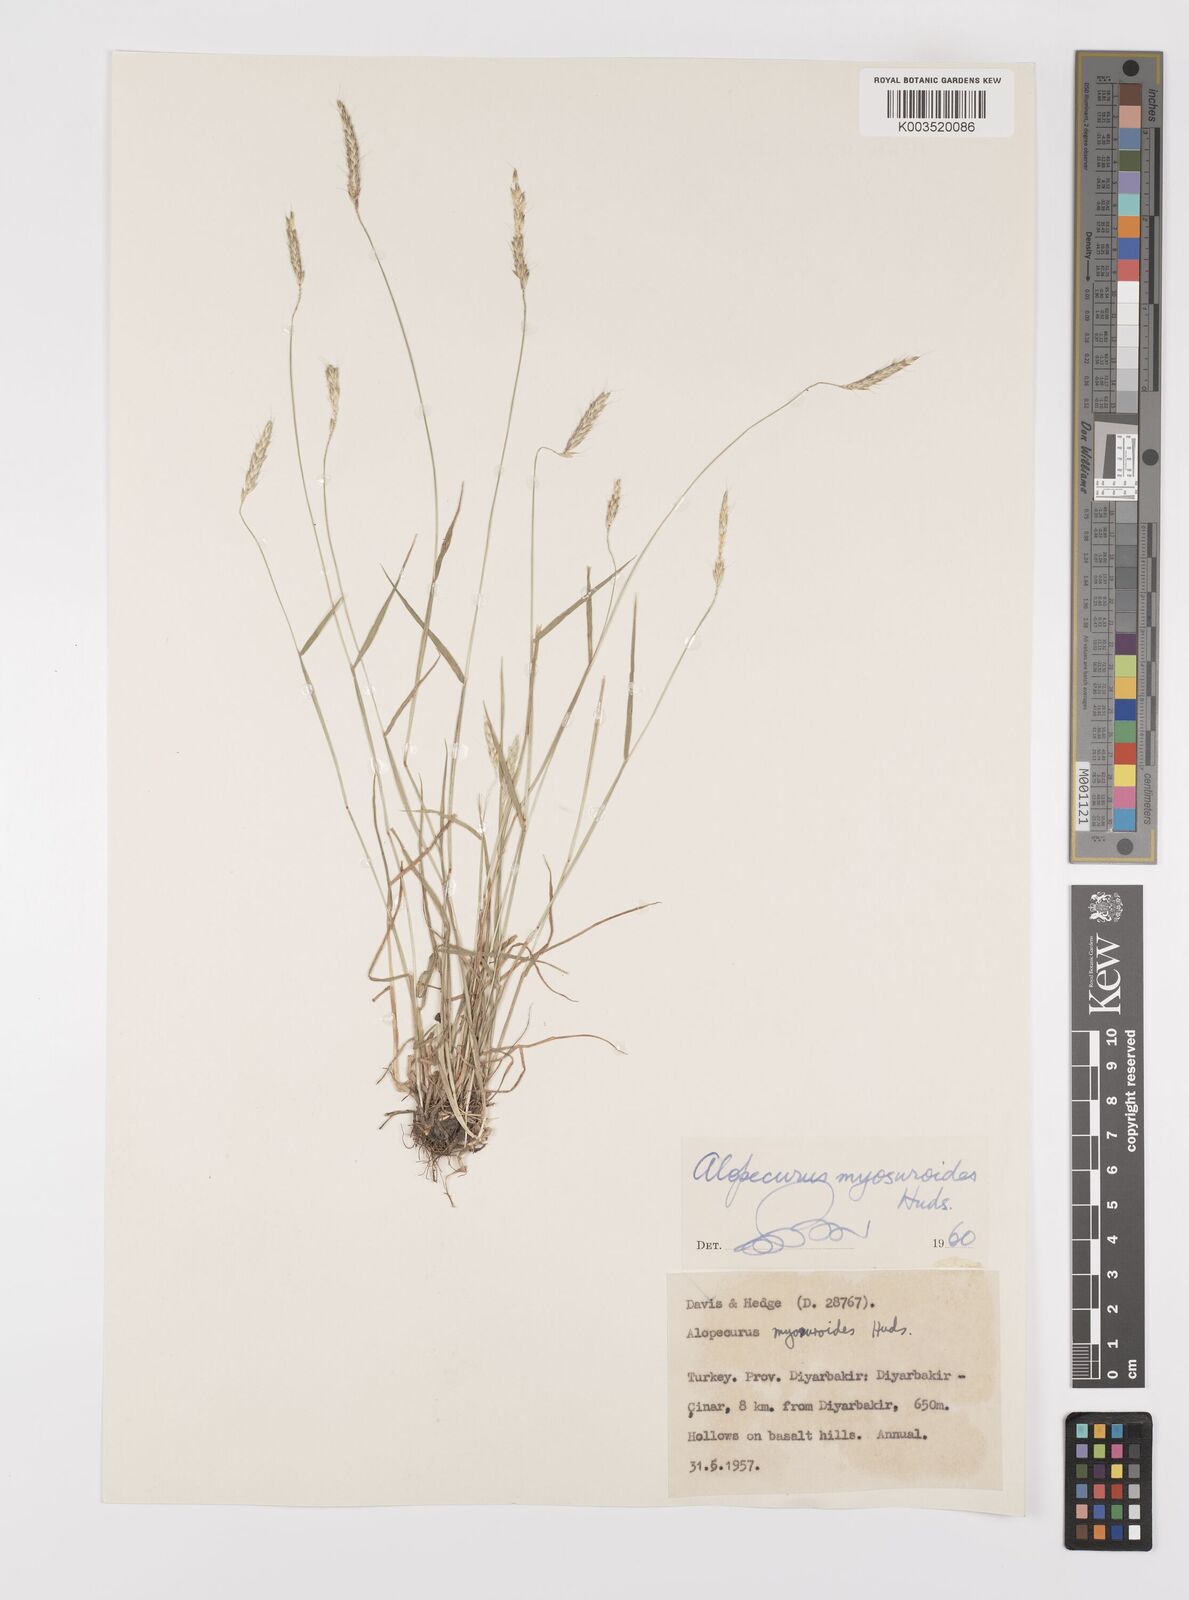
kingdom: Plantae
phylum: Tracheophyta
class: Liliopsida
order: Poales
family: Poaceae
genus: Alopecurus
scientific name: Alopecurus myosuroides
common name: Black-grass
